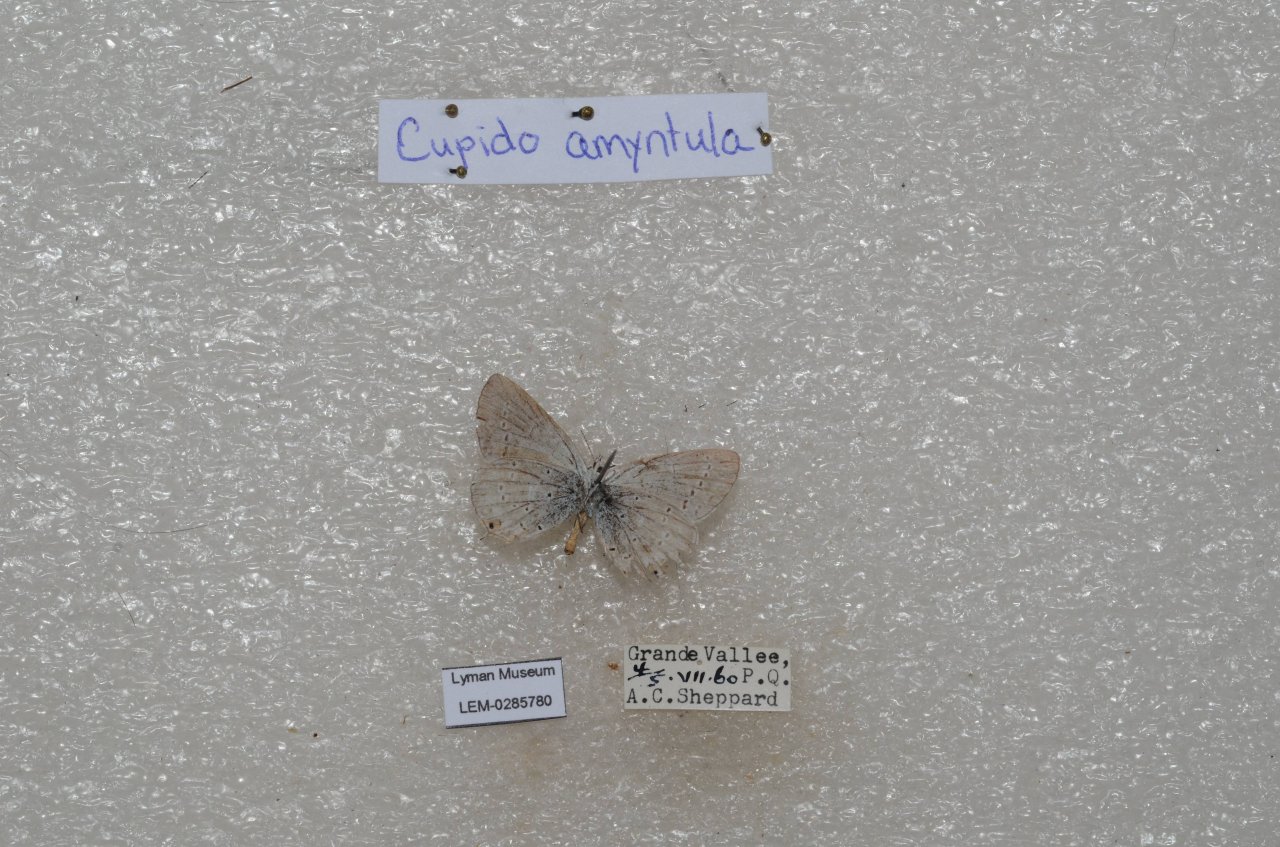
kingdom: Animalia
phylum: Arthropoda
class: Insecta
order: Lepidoptera
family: Lycaenidae
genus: Elkalyce
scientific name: Elkalyce amyntula
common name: Western Tailed-Blue
